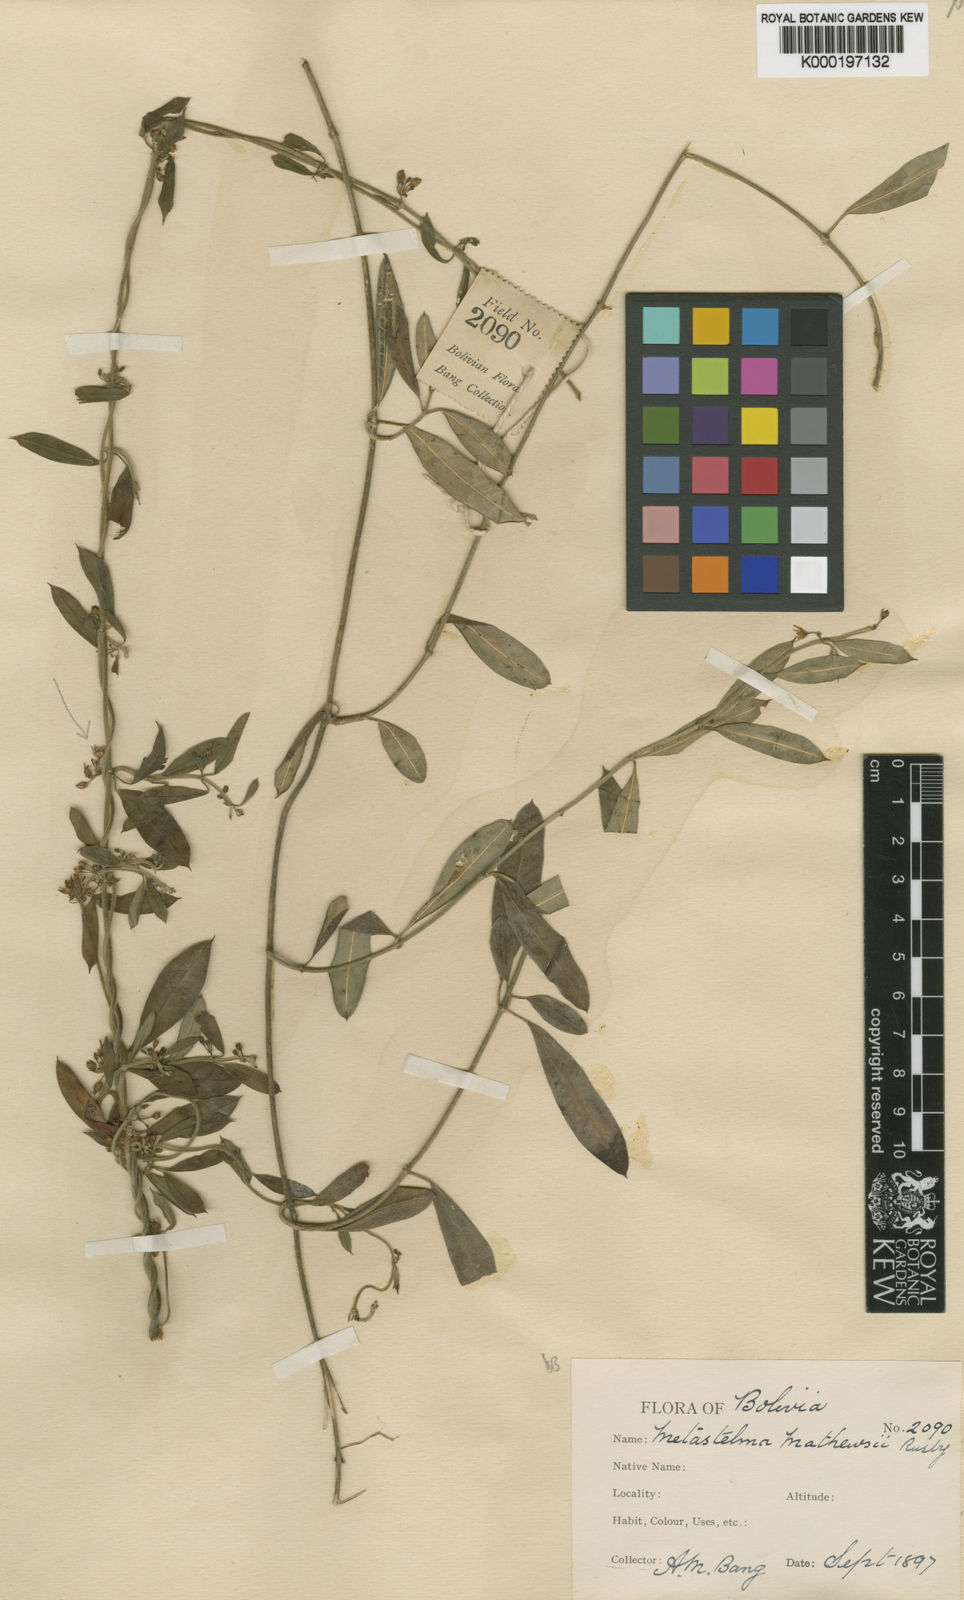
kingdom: Plantae
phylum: Tracheophyta
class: Magnoliopsida
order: Gentianales
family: Apocynaceae
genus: Metastelma
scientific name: Metastelma mathewsii
